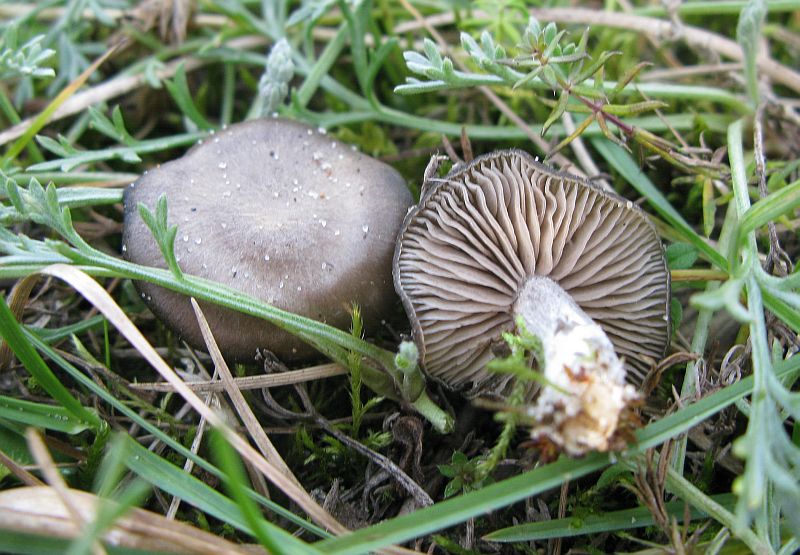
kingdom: Fungi
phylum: Basidiomycota
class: Agaricomycetes
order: Agaricales
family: Entolomataceae
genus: Entoloma
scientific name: Entoloma sericeum
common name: silkeglinsende rødblad
